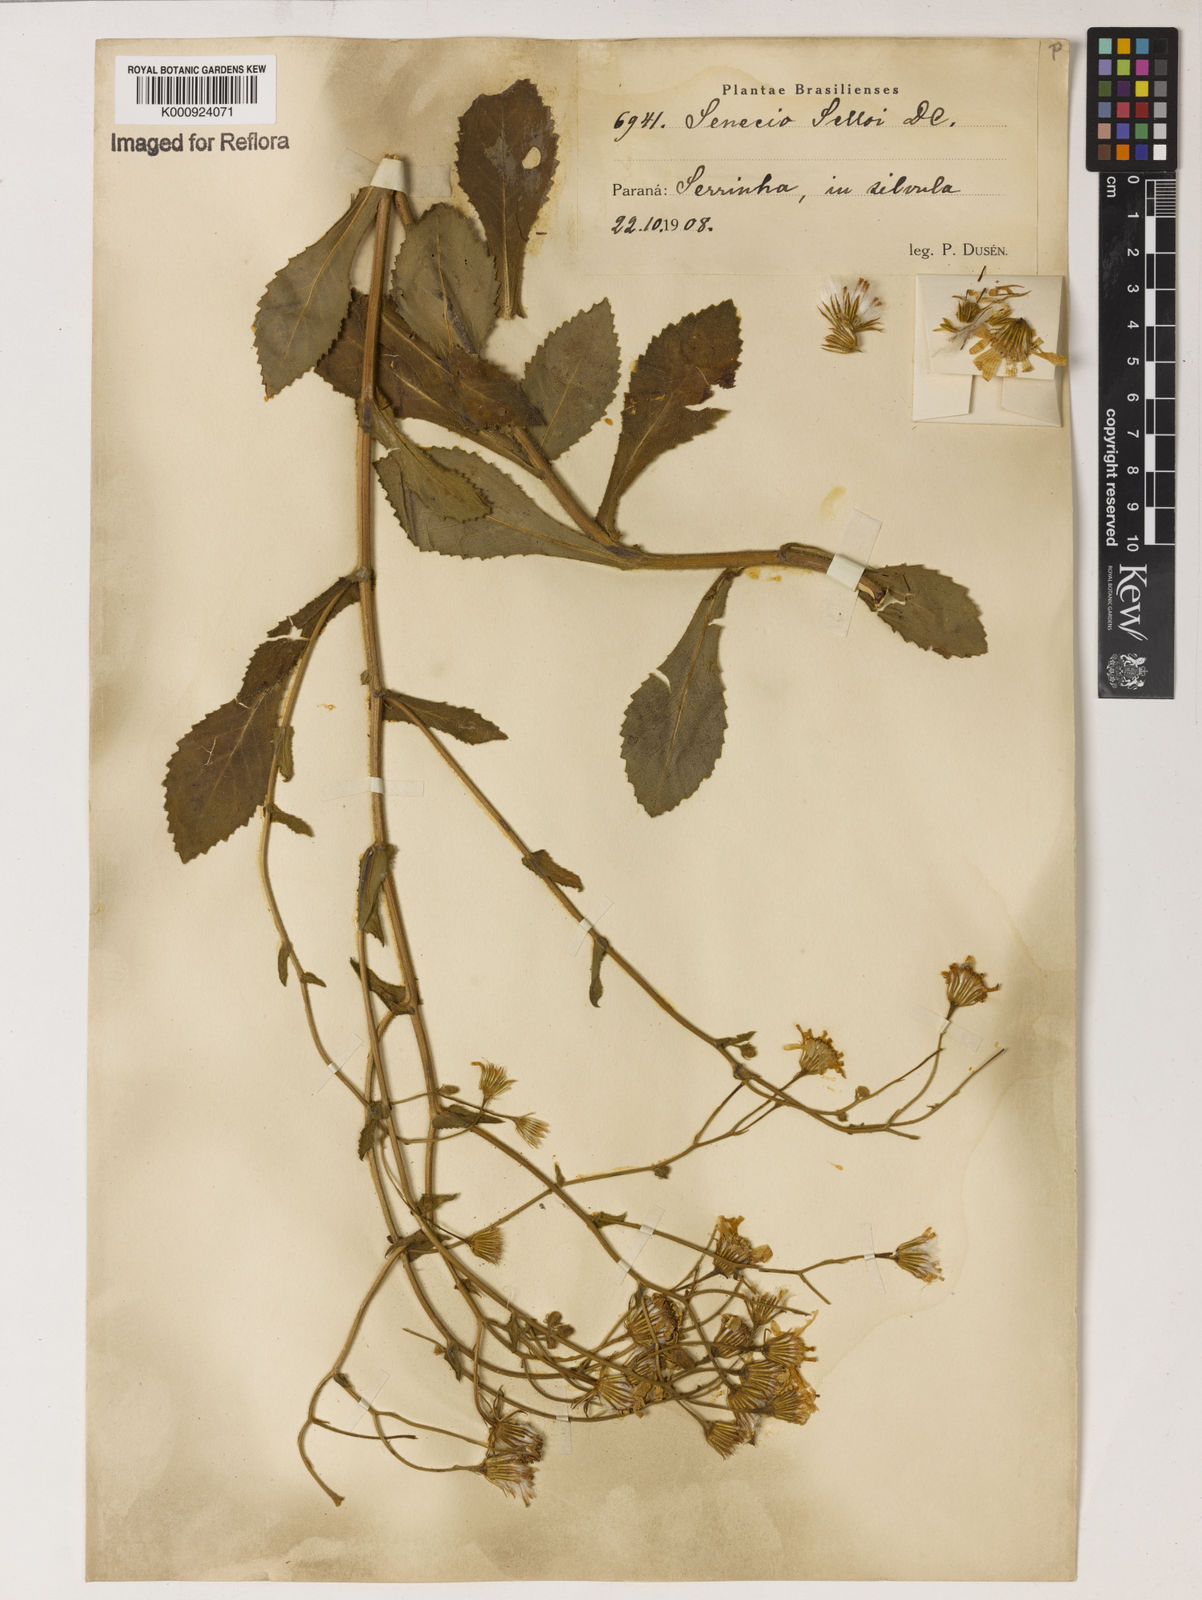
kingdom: Plantae
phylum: Tracheophyta
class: Magnoliopsida
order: Asterales
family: Asteraceae
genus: Senecio
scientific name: Senecio selloi
